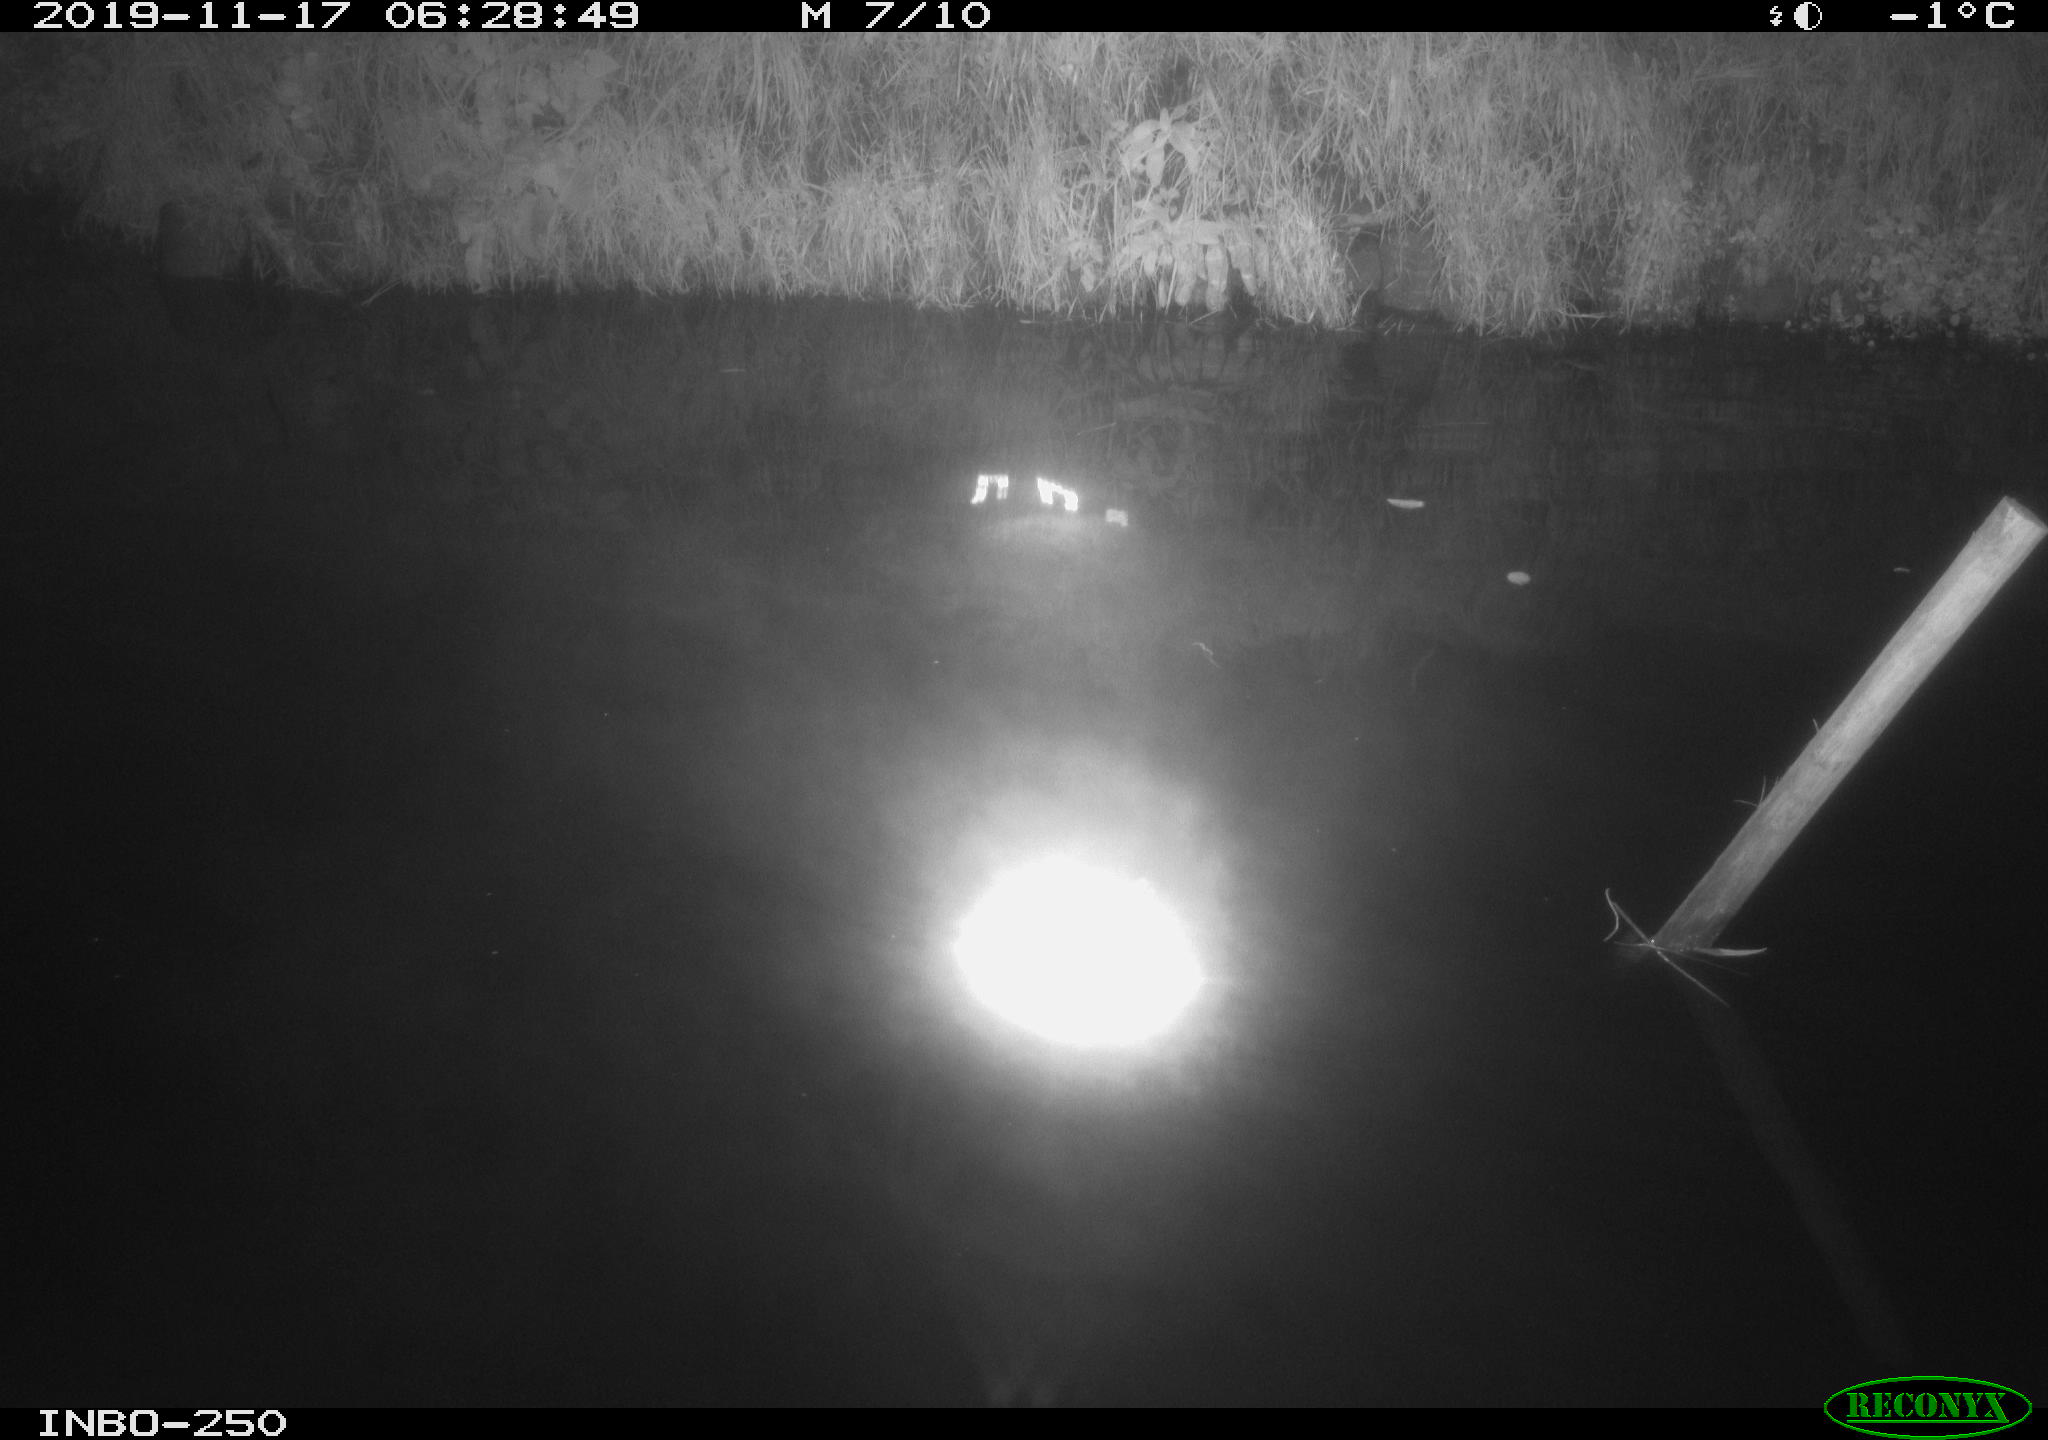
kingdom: Animalia
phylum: Chordata
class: Aves
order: Anseriformes
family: Anatidae
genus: Anas
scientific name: Anas platyrhynchos
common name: Mallard
